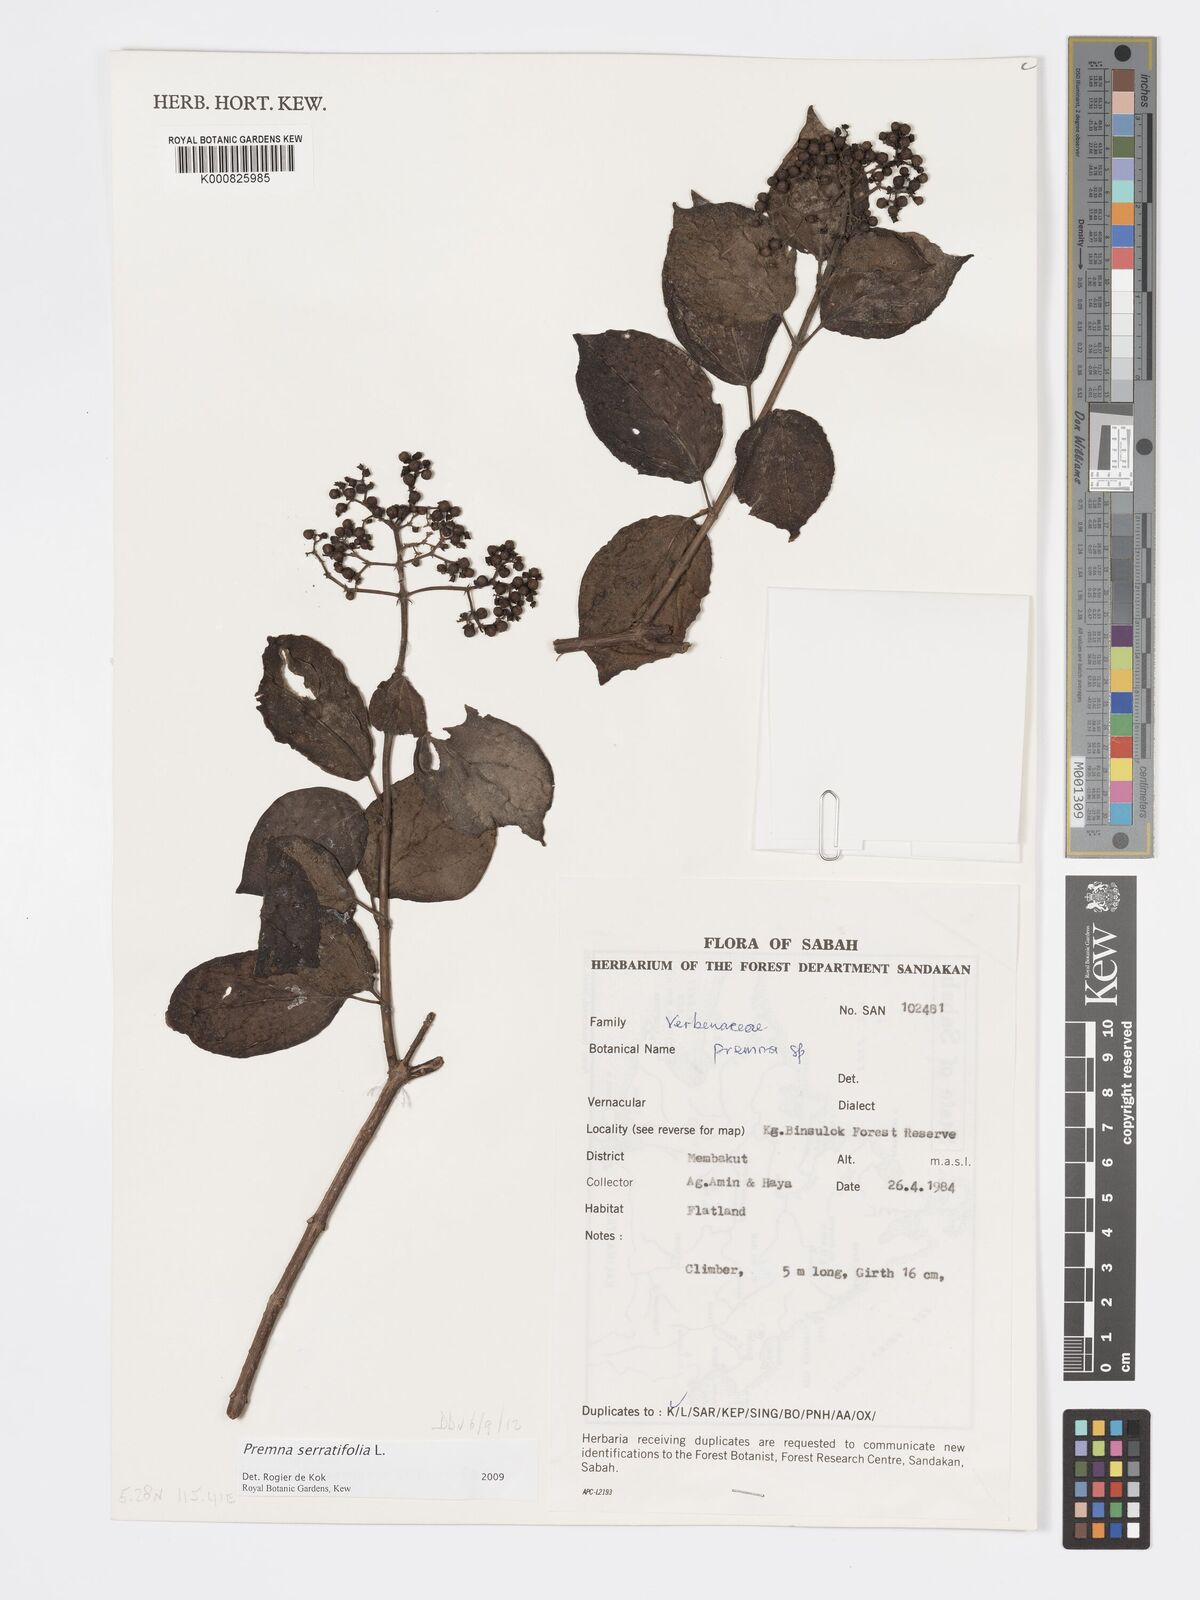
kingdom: Plantae
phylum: Tracheophyta
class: Magnoliopsida
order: Lamiales
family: Lamiaceae
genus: Premna
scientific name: Premna serratifolia
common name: Bastard guelder
